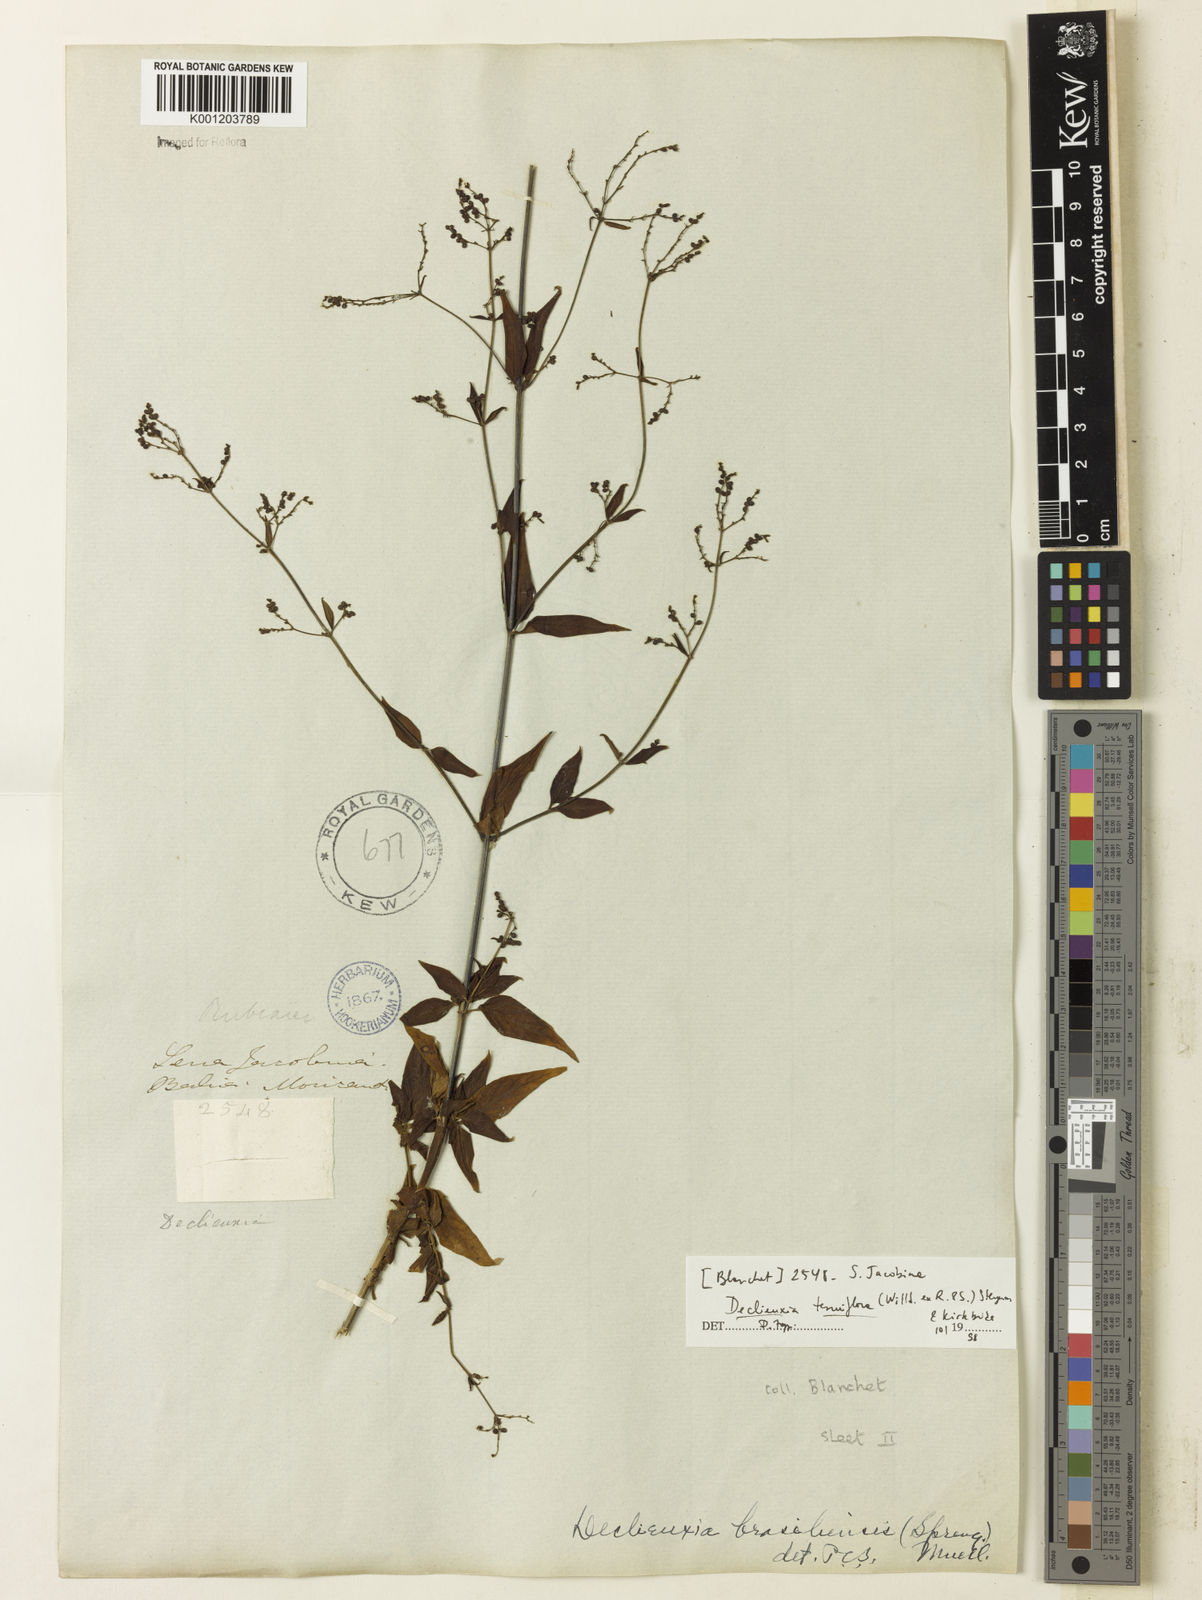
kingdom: Plantae
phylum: Tracheophyta
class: Magnoliopsida
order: Gentianales
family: Rubiaceae
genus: Declieuxia
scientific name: Declieuxia tenuiflora
